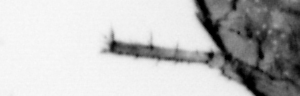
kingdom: Animalia
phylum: Arthropoda
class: Arachnida
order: Trombidiformes
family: Halacaridae
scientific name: Halacaridae
